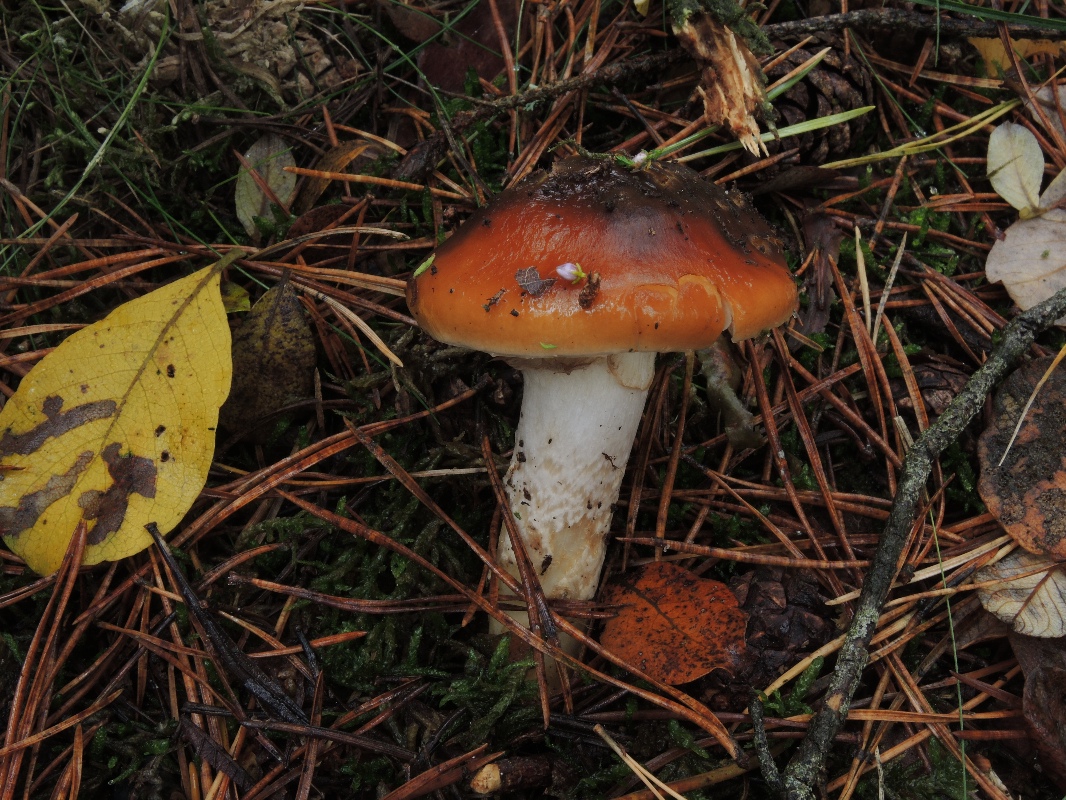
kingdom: Fungi
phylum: Basidiomycota
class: Agaricomycetes
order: Agaricales
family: Cortinariaceae
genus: Cortinarius
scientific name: Cortinarius mucosus
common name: kastaniebrun slørhat
